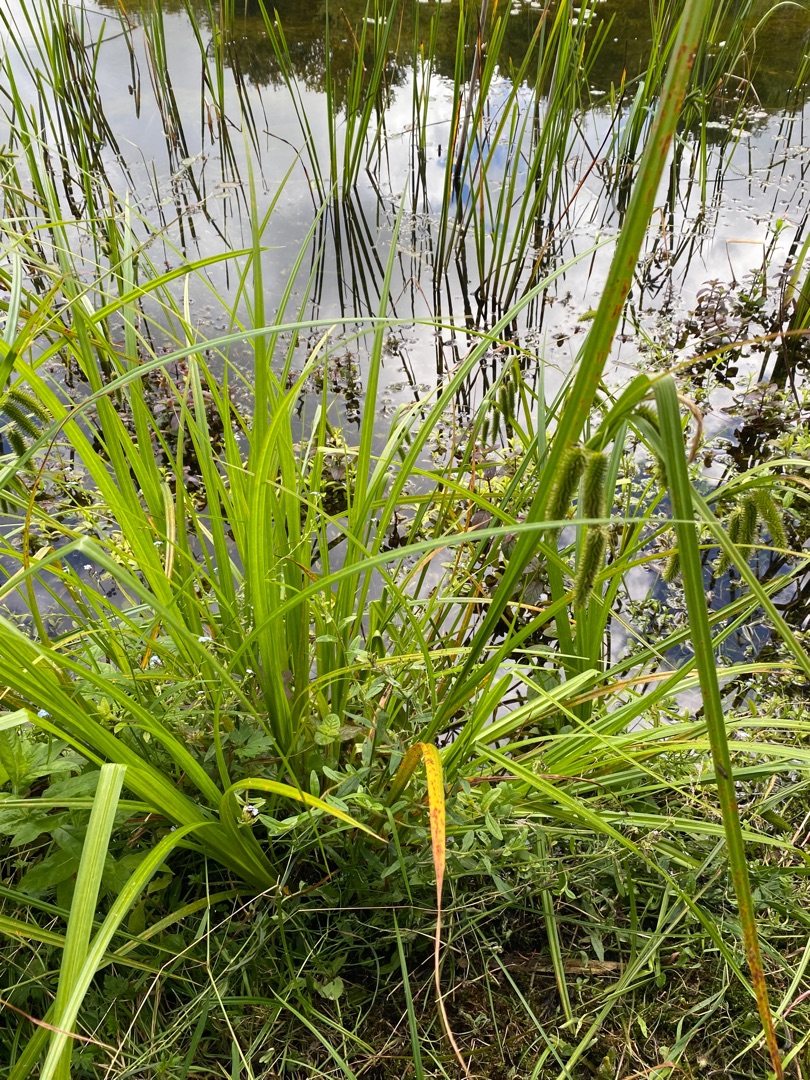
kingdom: Plantae
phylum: Tracheophyta
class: Liliopsida
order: Poales
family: Cyperaceae
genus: Carex
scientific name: Carex pseudocyperus
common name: Knippe-star
